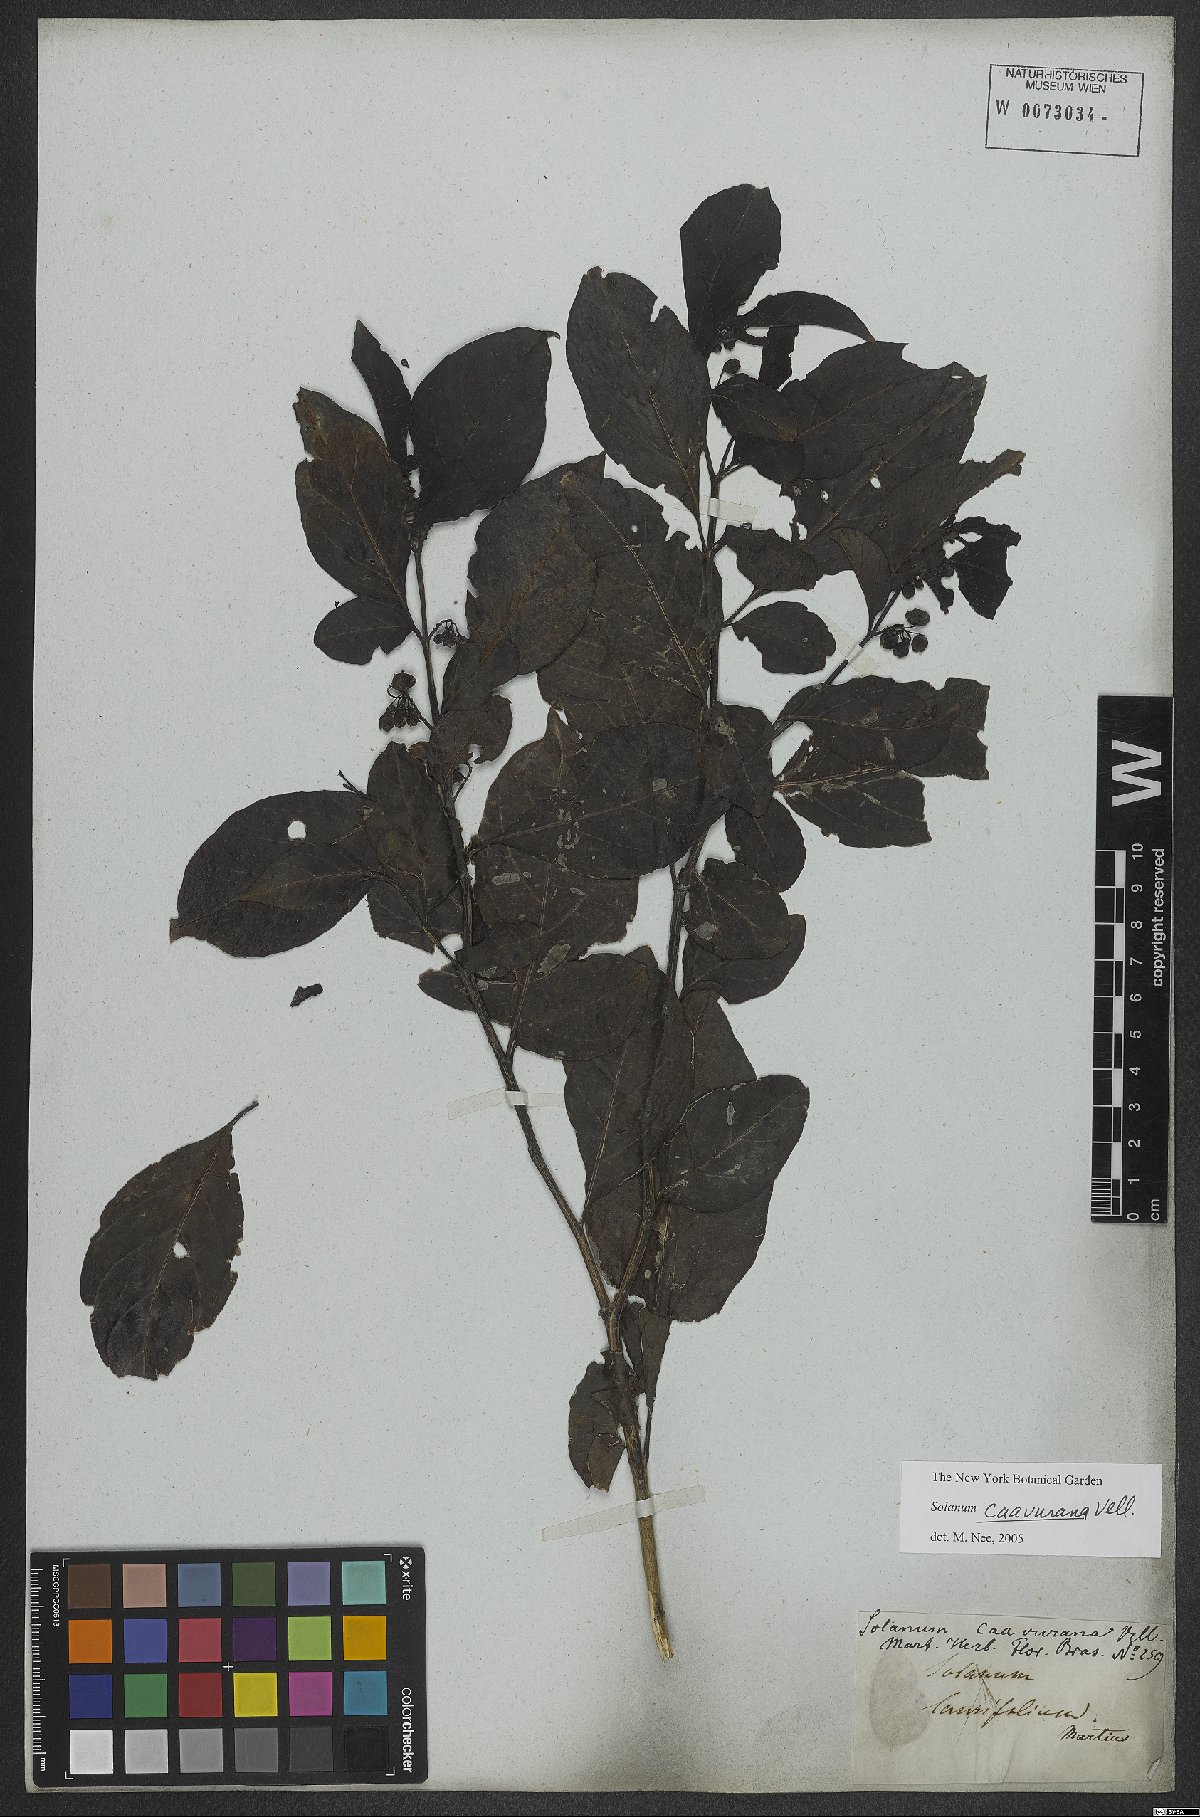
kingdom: Plantae
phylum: Tracheophyta
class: Magnoliopsida
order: Solanales
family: Solanaceae
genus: Solanum
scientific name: Solanum caavurana
